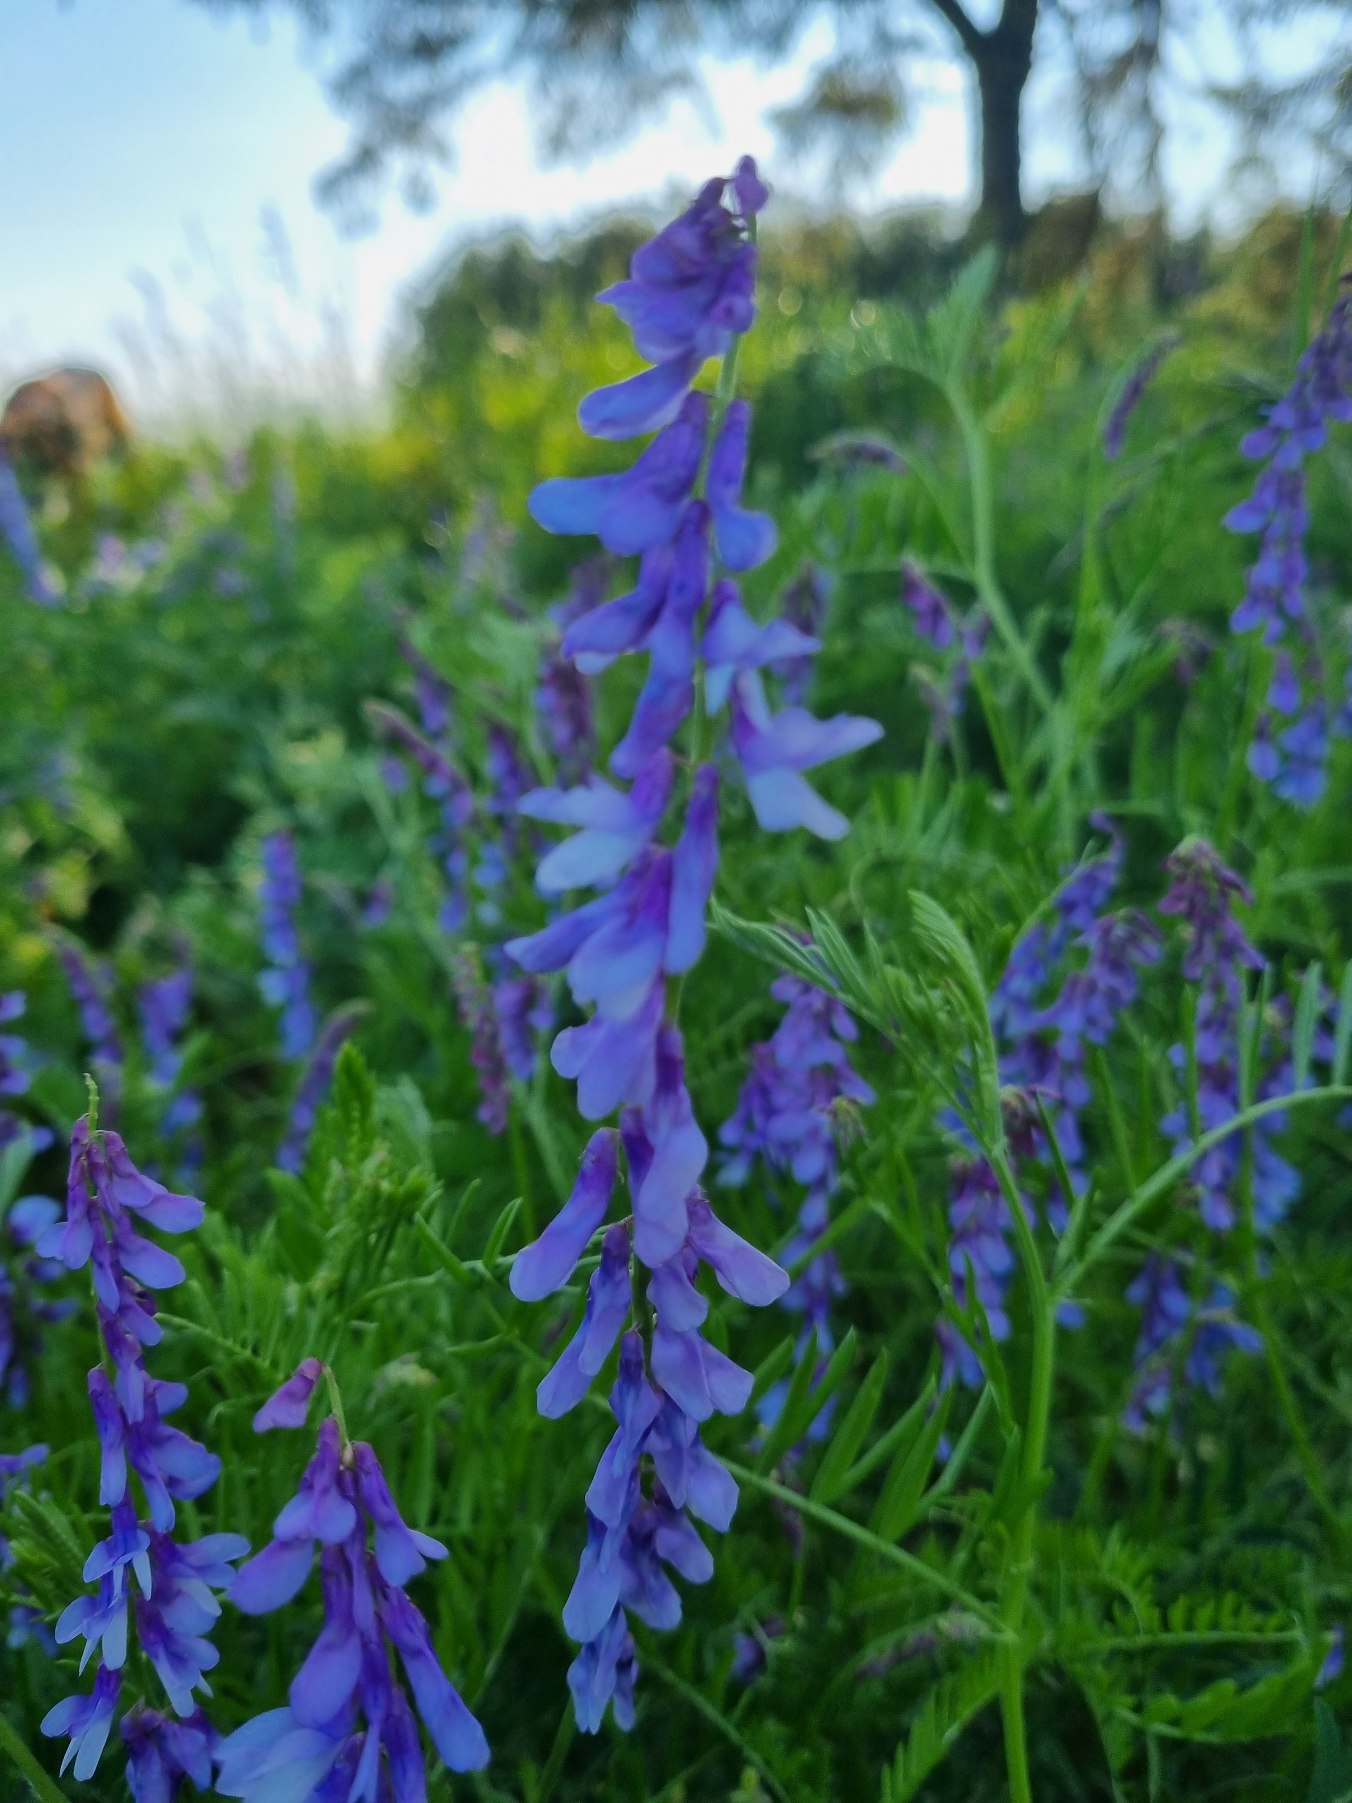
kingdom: Plantae
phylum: Tracheophyta
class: Magnoliopsida
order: Fabales
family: Fabaceae
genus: Vicia
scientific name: Vicia cracca
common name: Muse-vikke
